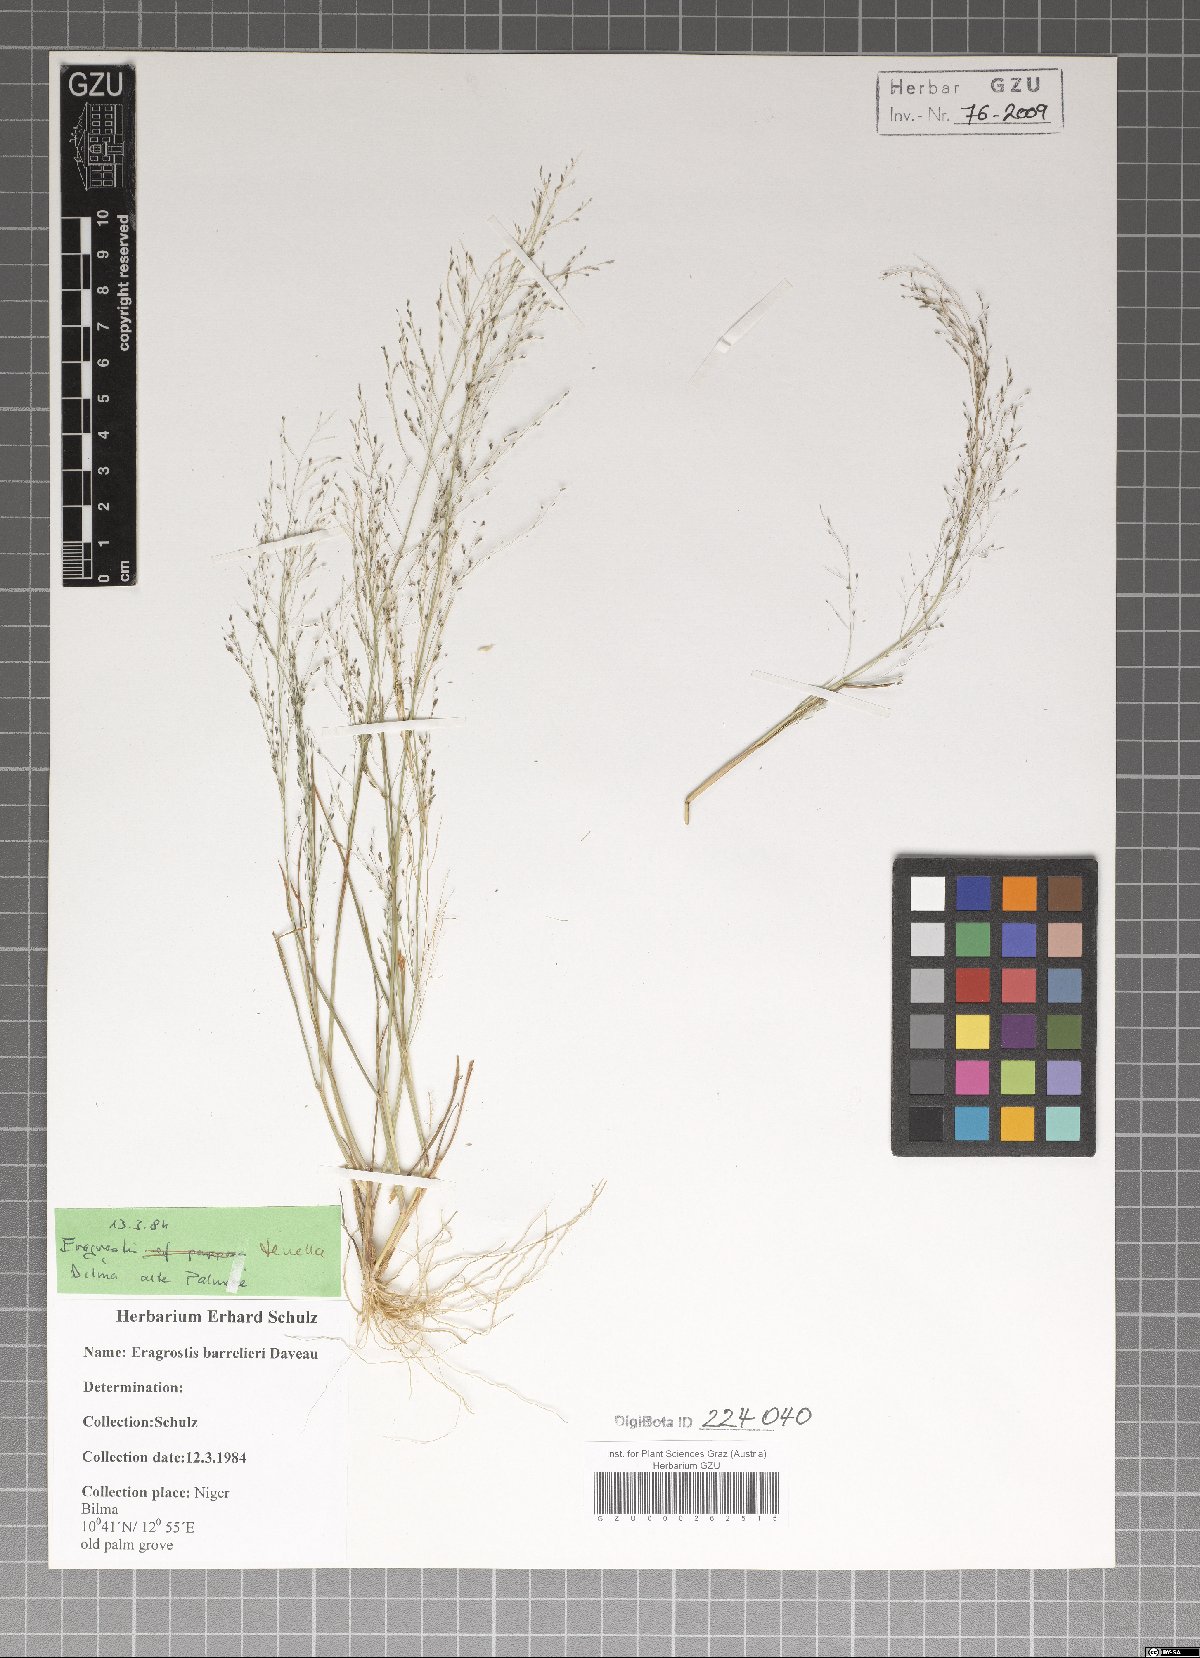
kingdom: Plantae
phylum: Tracheophyta
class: Liliopsida
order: Poales
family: Poaceae
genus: Eragrostis
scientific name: Eragrostis barrelieri
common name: Mediterranean lovegrass
